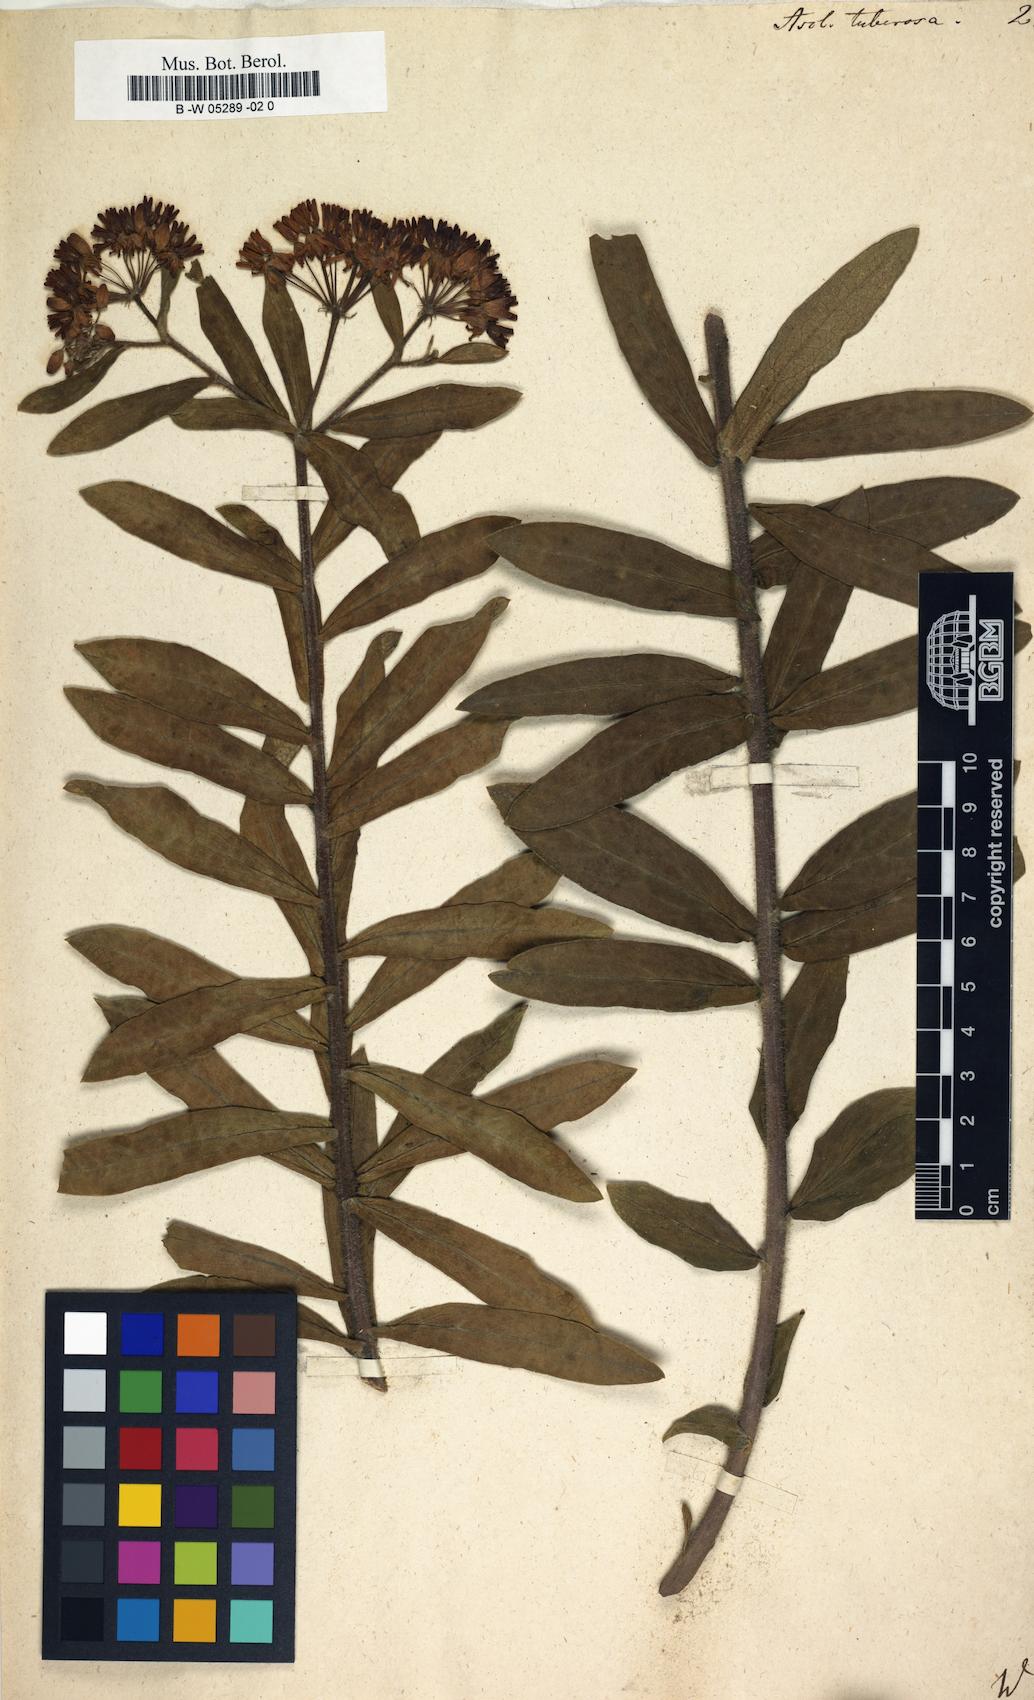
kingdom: Plantae
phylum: Tracheophyta
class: Magnoliopsida
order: Gentianales
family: Apocynaceae
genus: Asclepias
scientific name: Asclepias tuberosa
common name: Butterfly milkweed
